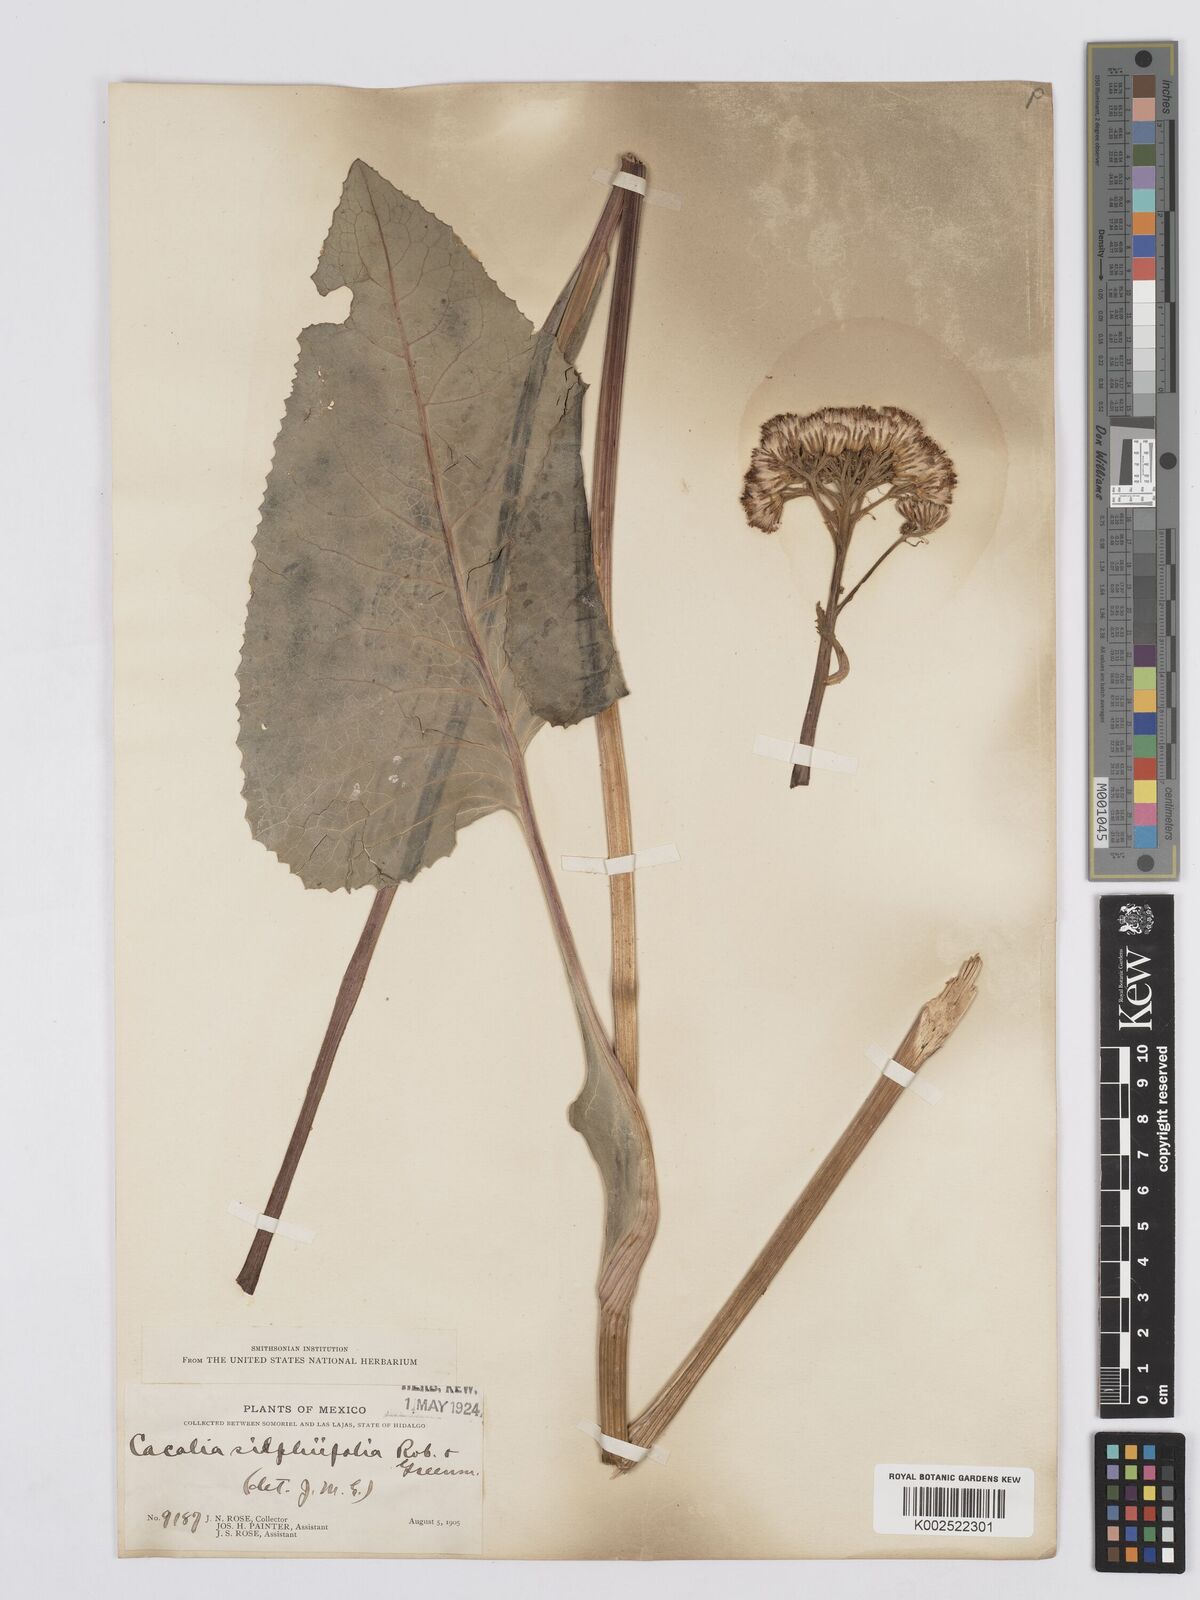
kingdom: Plantae
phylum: Tracheophyta
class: Magnoliopsida
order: Asterales
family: Asteraceae
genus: Psacalium
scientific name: Psacalium silphiifolium
